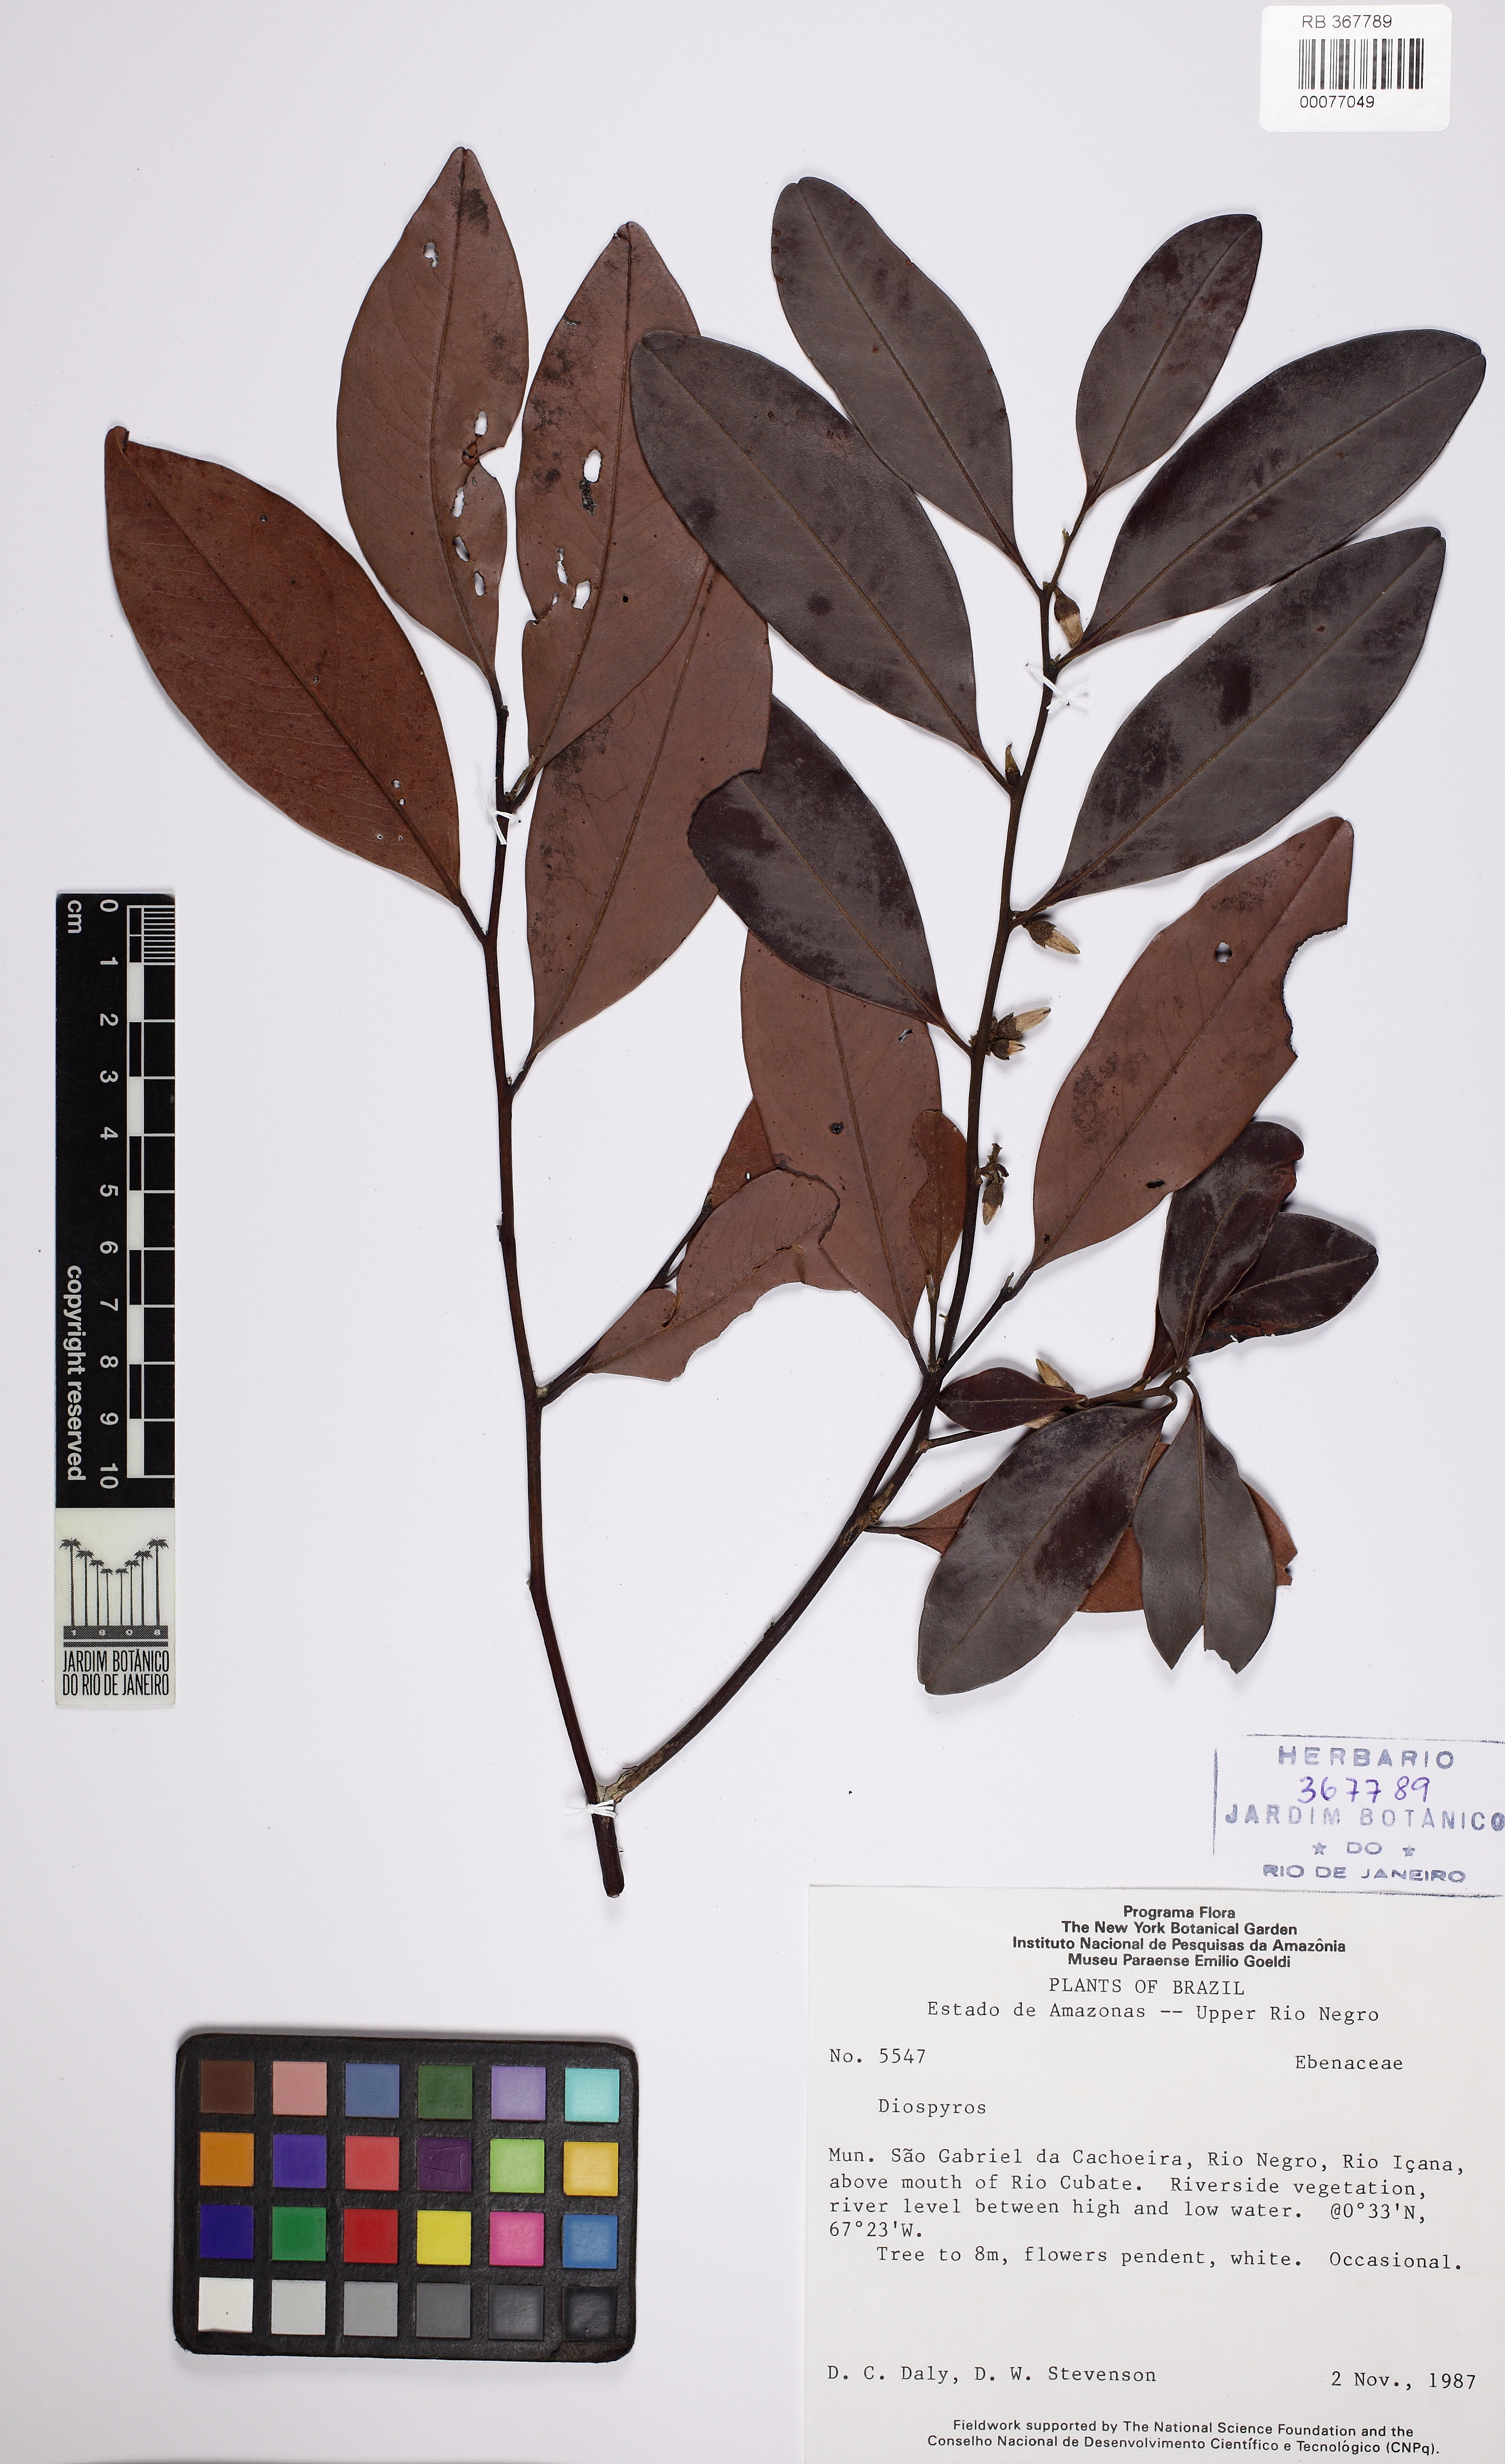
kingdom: Plantae
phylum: Tracheophyta
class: Magnoliopsida
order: Ericales
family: Ebenaceae
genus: Diospyros
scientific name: Diospyros
